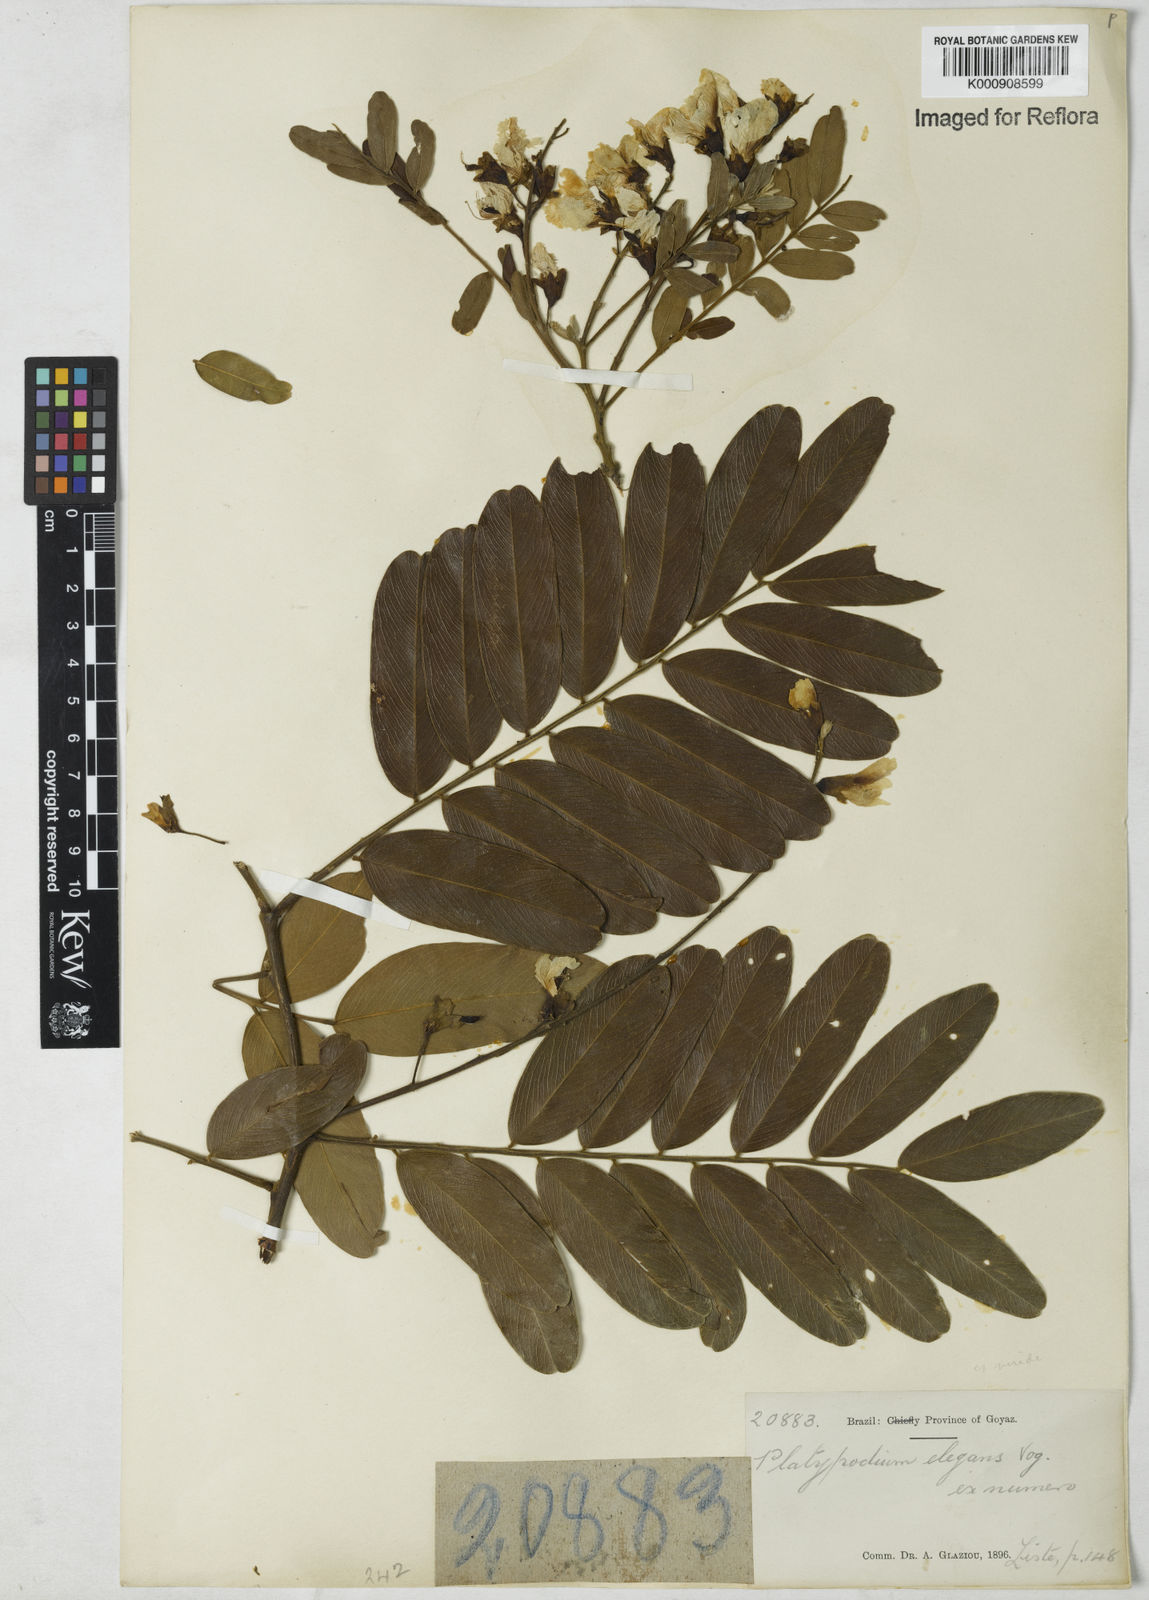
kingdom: Plantae
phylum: Tracheophyta
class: Magnoliopsida
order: Fabales
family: Fabaceae
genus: Platypodium
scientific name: Platypodium
